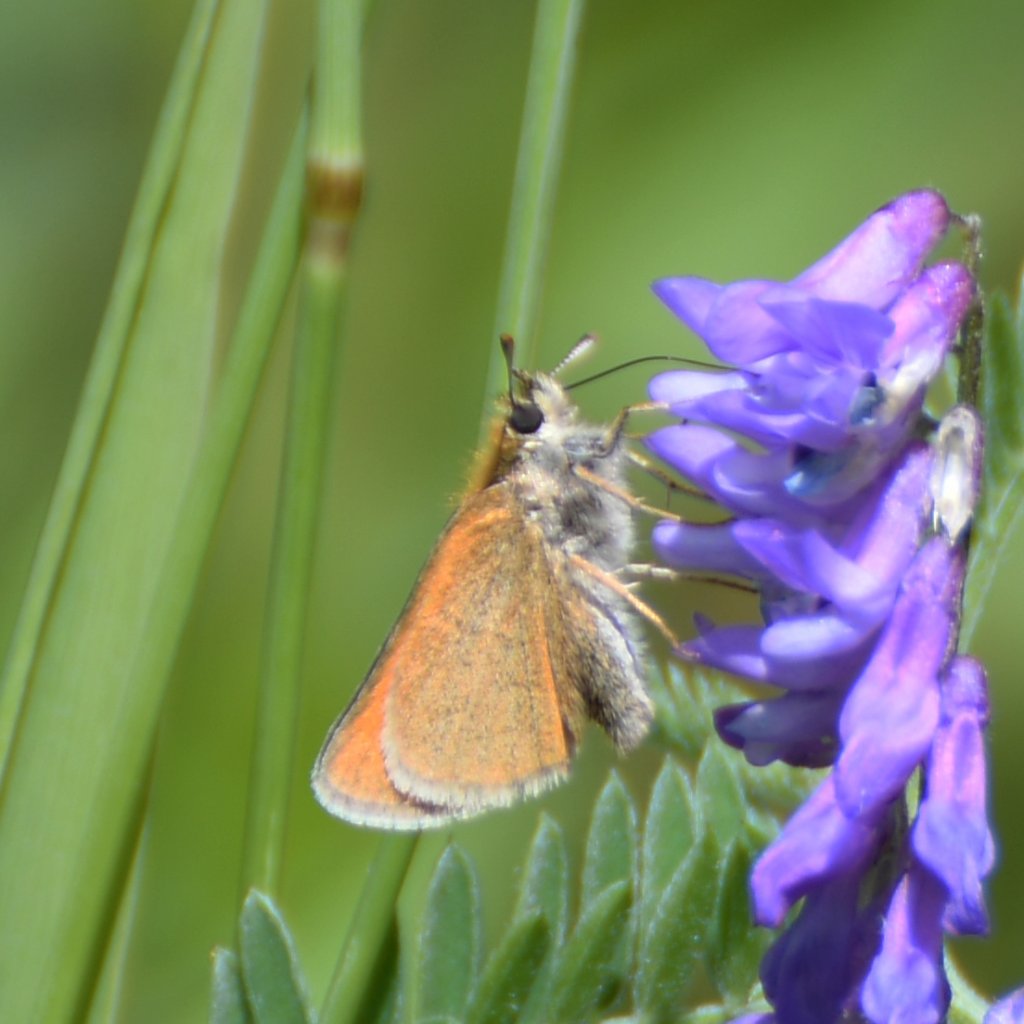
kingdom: Animalia
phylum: Arthropoda
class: Insecta
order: Lepidoptera
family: Hesperiidae
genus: Thymelicus
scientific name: Thymelicus lineola
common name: European Skipper
